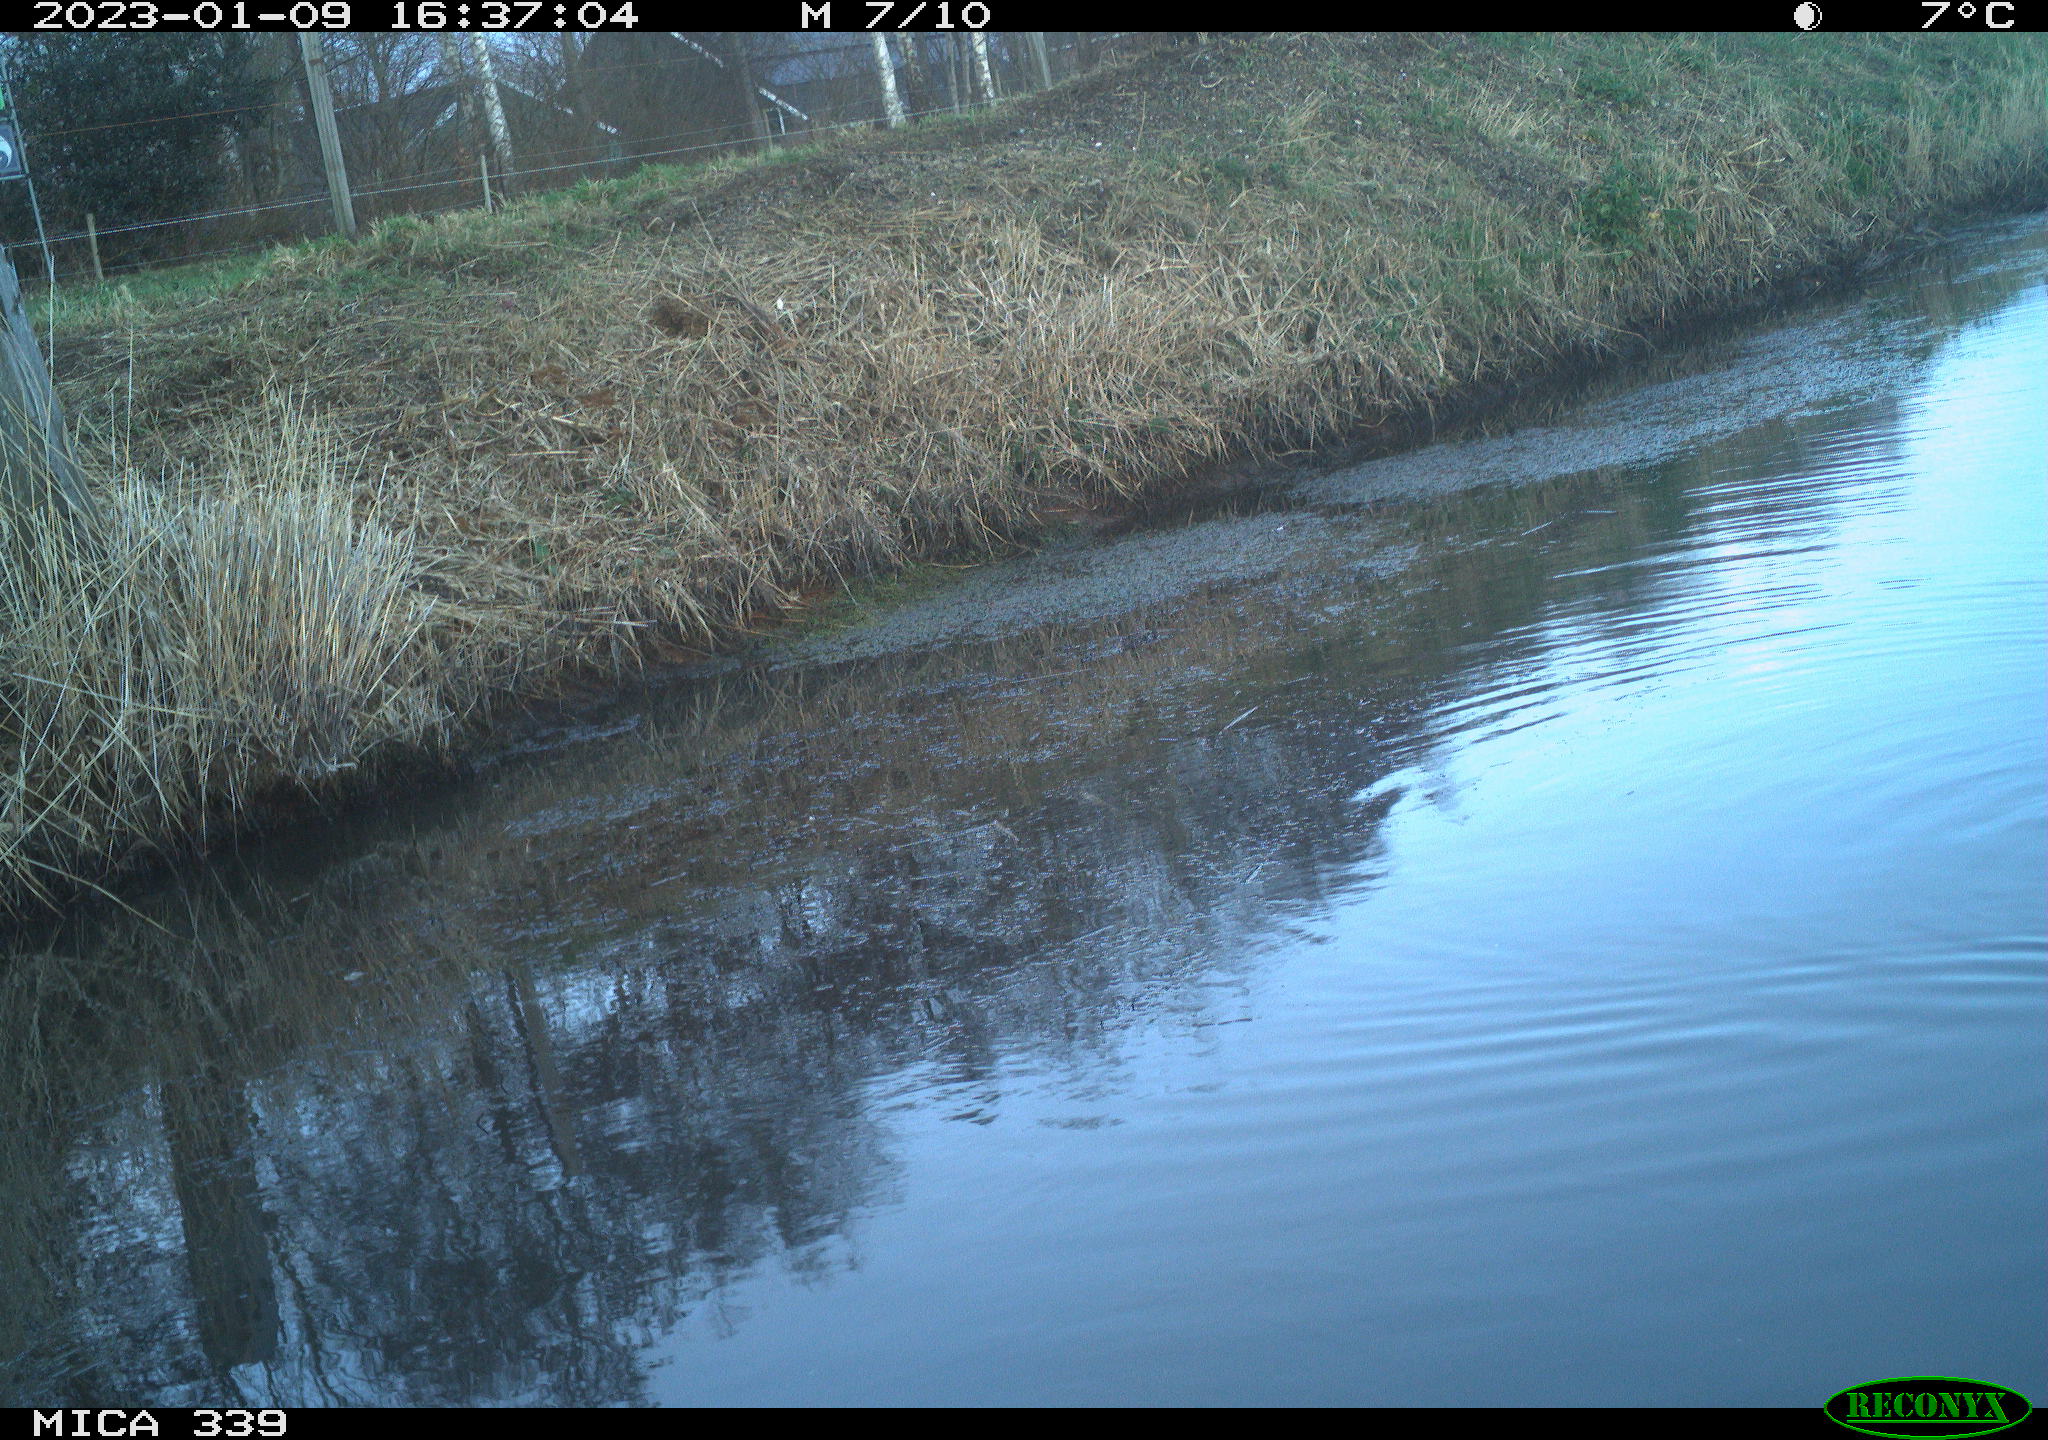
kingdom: Animalia
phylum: Chordata
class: Aves
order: Gruiformes
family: Rallidae
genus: Gallinula
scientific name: Gallinula chloropus
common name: Common moorhen
